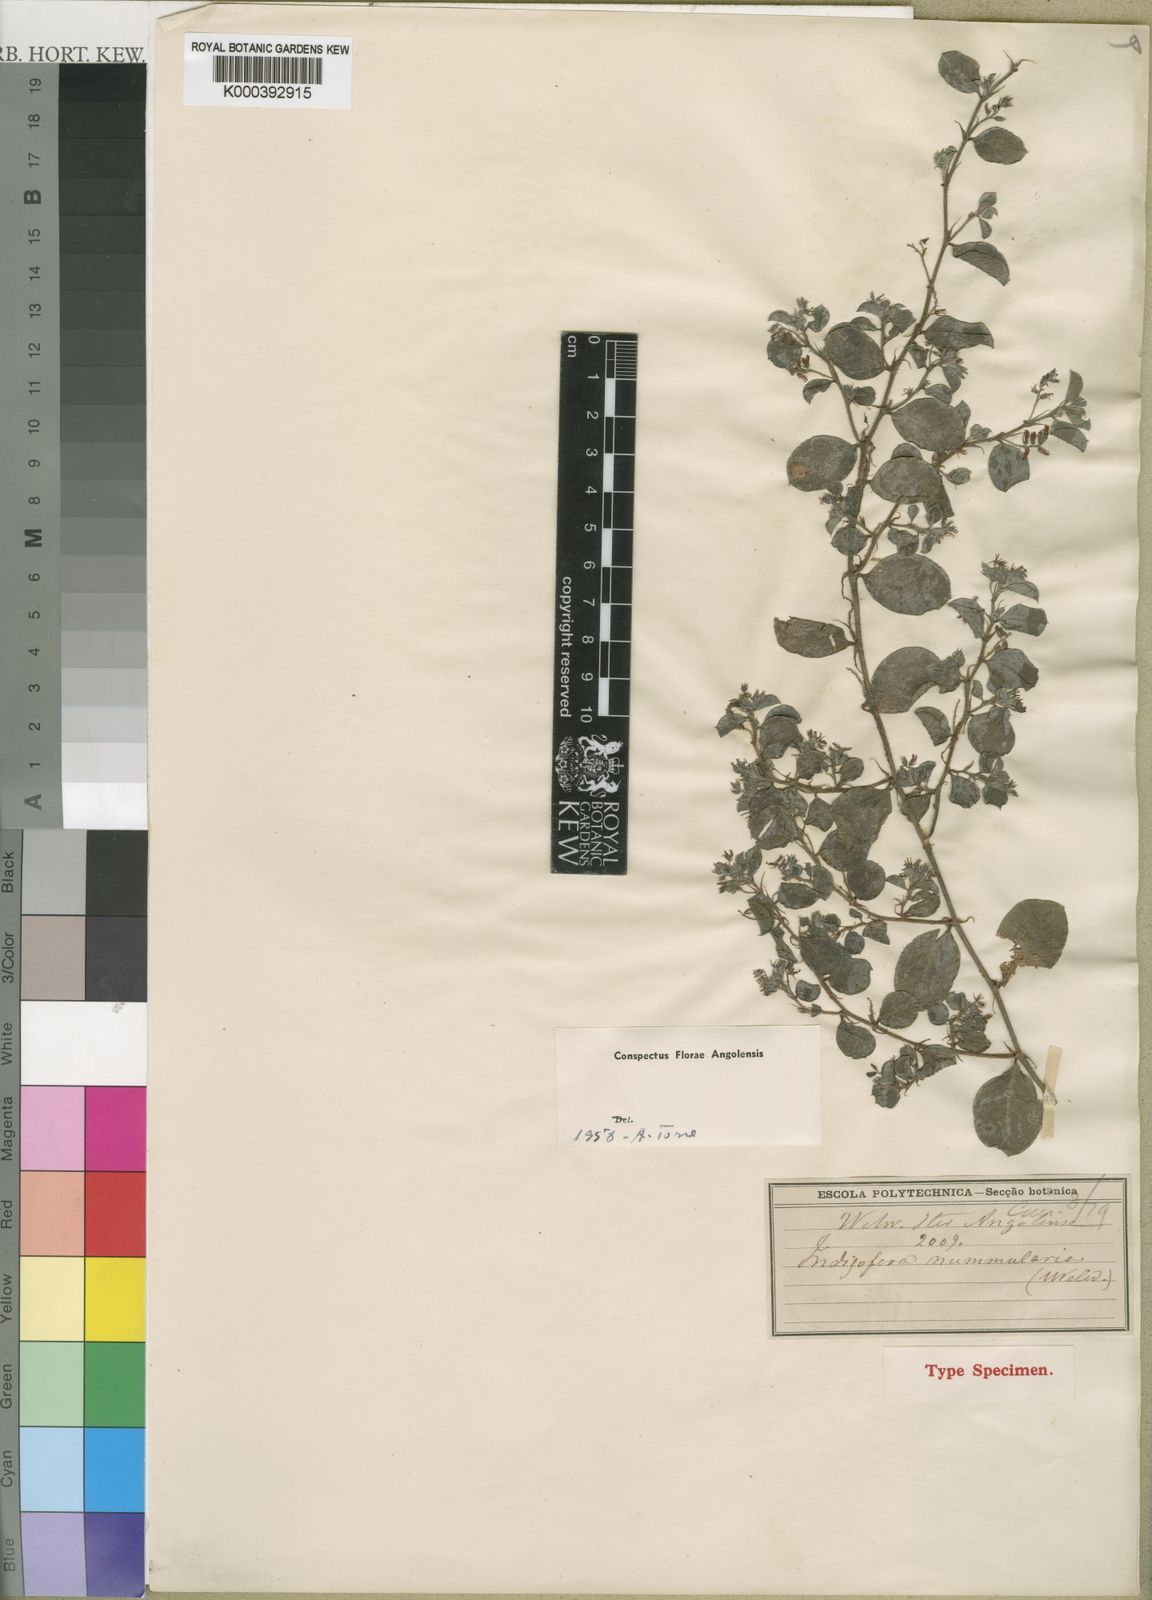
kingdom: Plantae
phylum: Tracheophyta
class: Magnoliopsida
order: Fabales
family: Fabaceae
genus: Indigofera
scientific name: Indigofera nummularia
